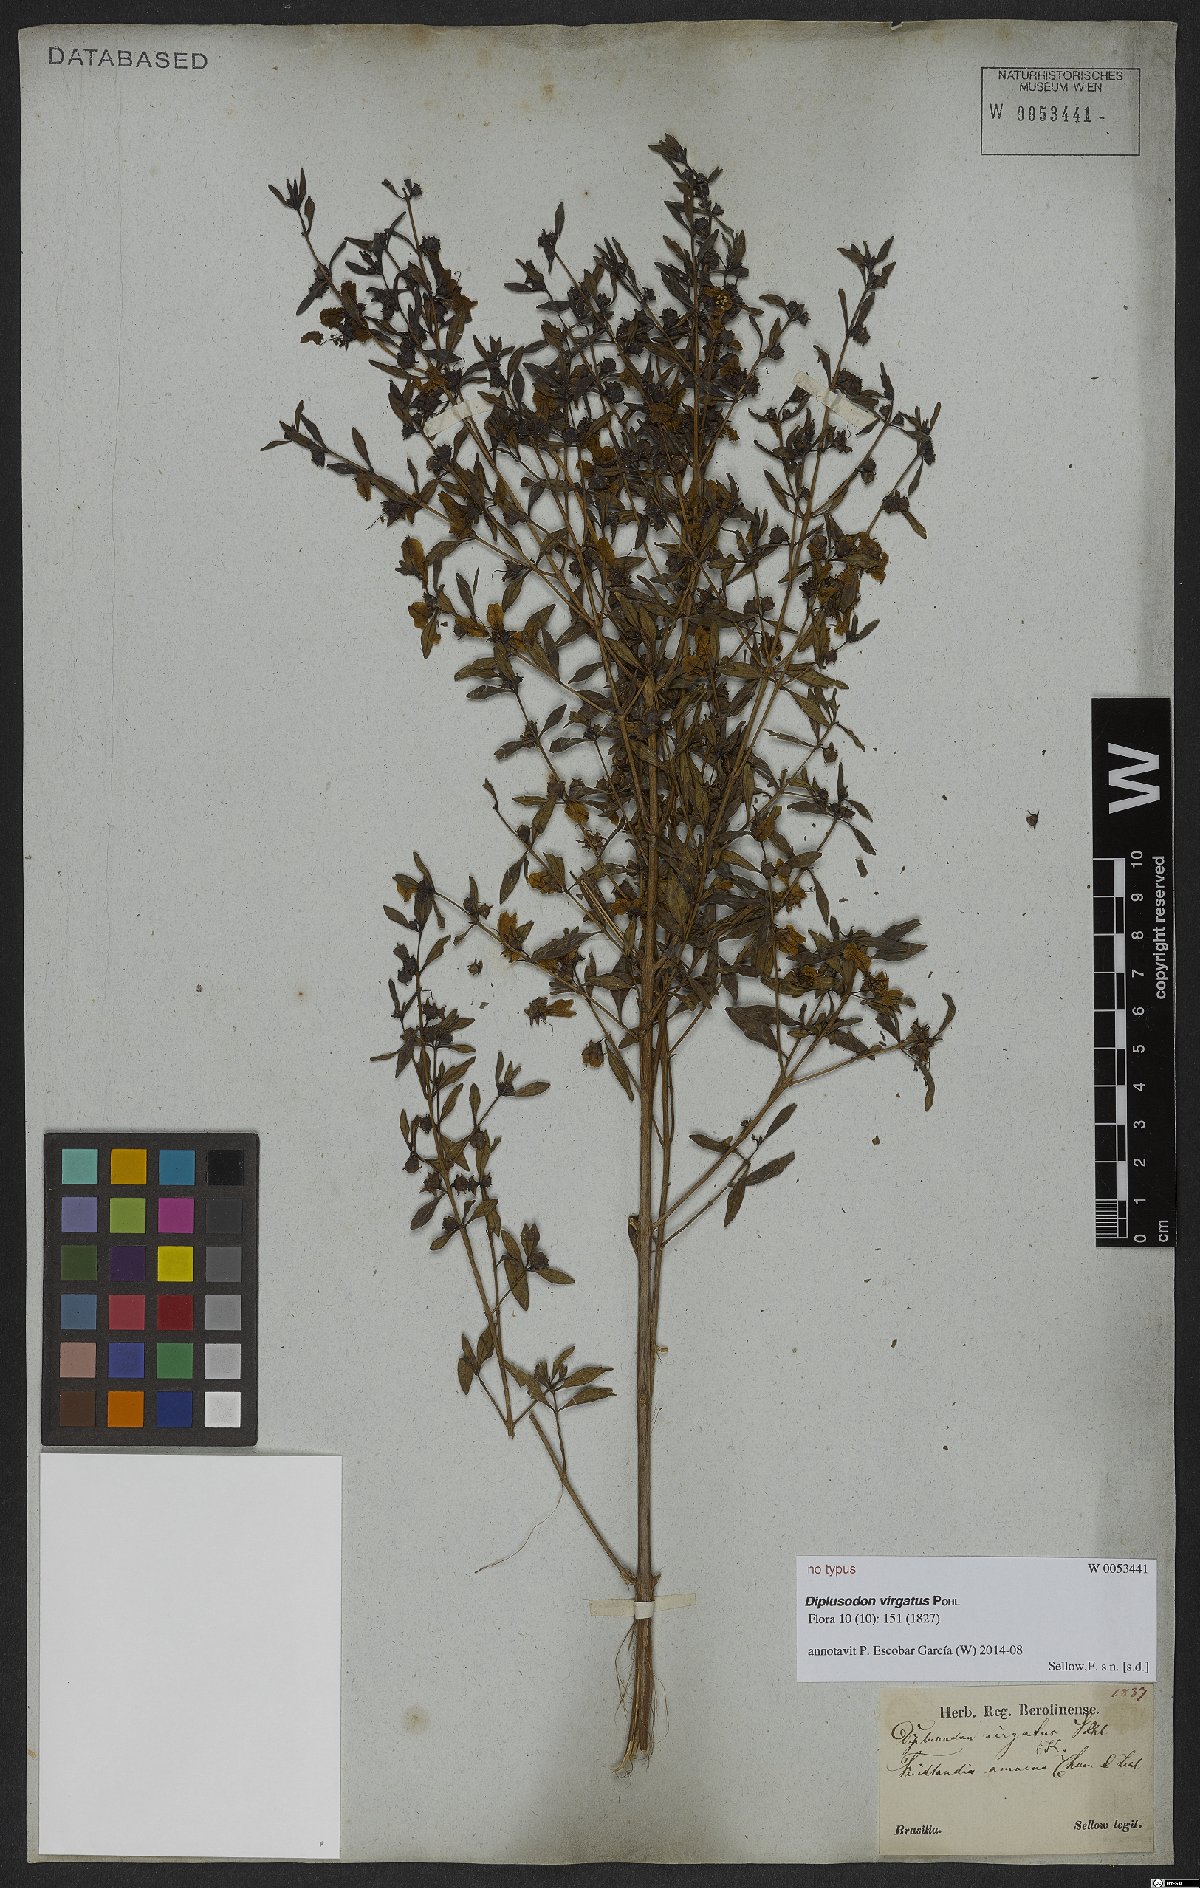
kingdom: Plantae
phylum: Tracheophyta
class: Magnoliopsida
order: Myrtales
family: Lythraceae
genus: Diplusodon
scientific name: Diplusodon virgatus
